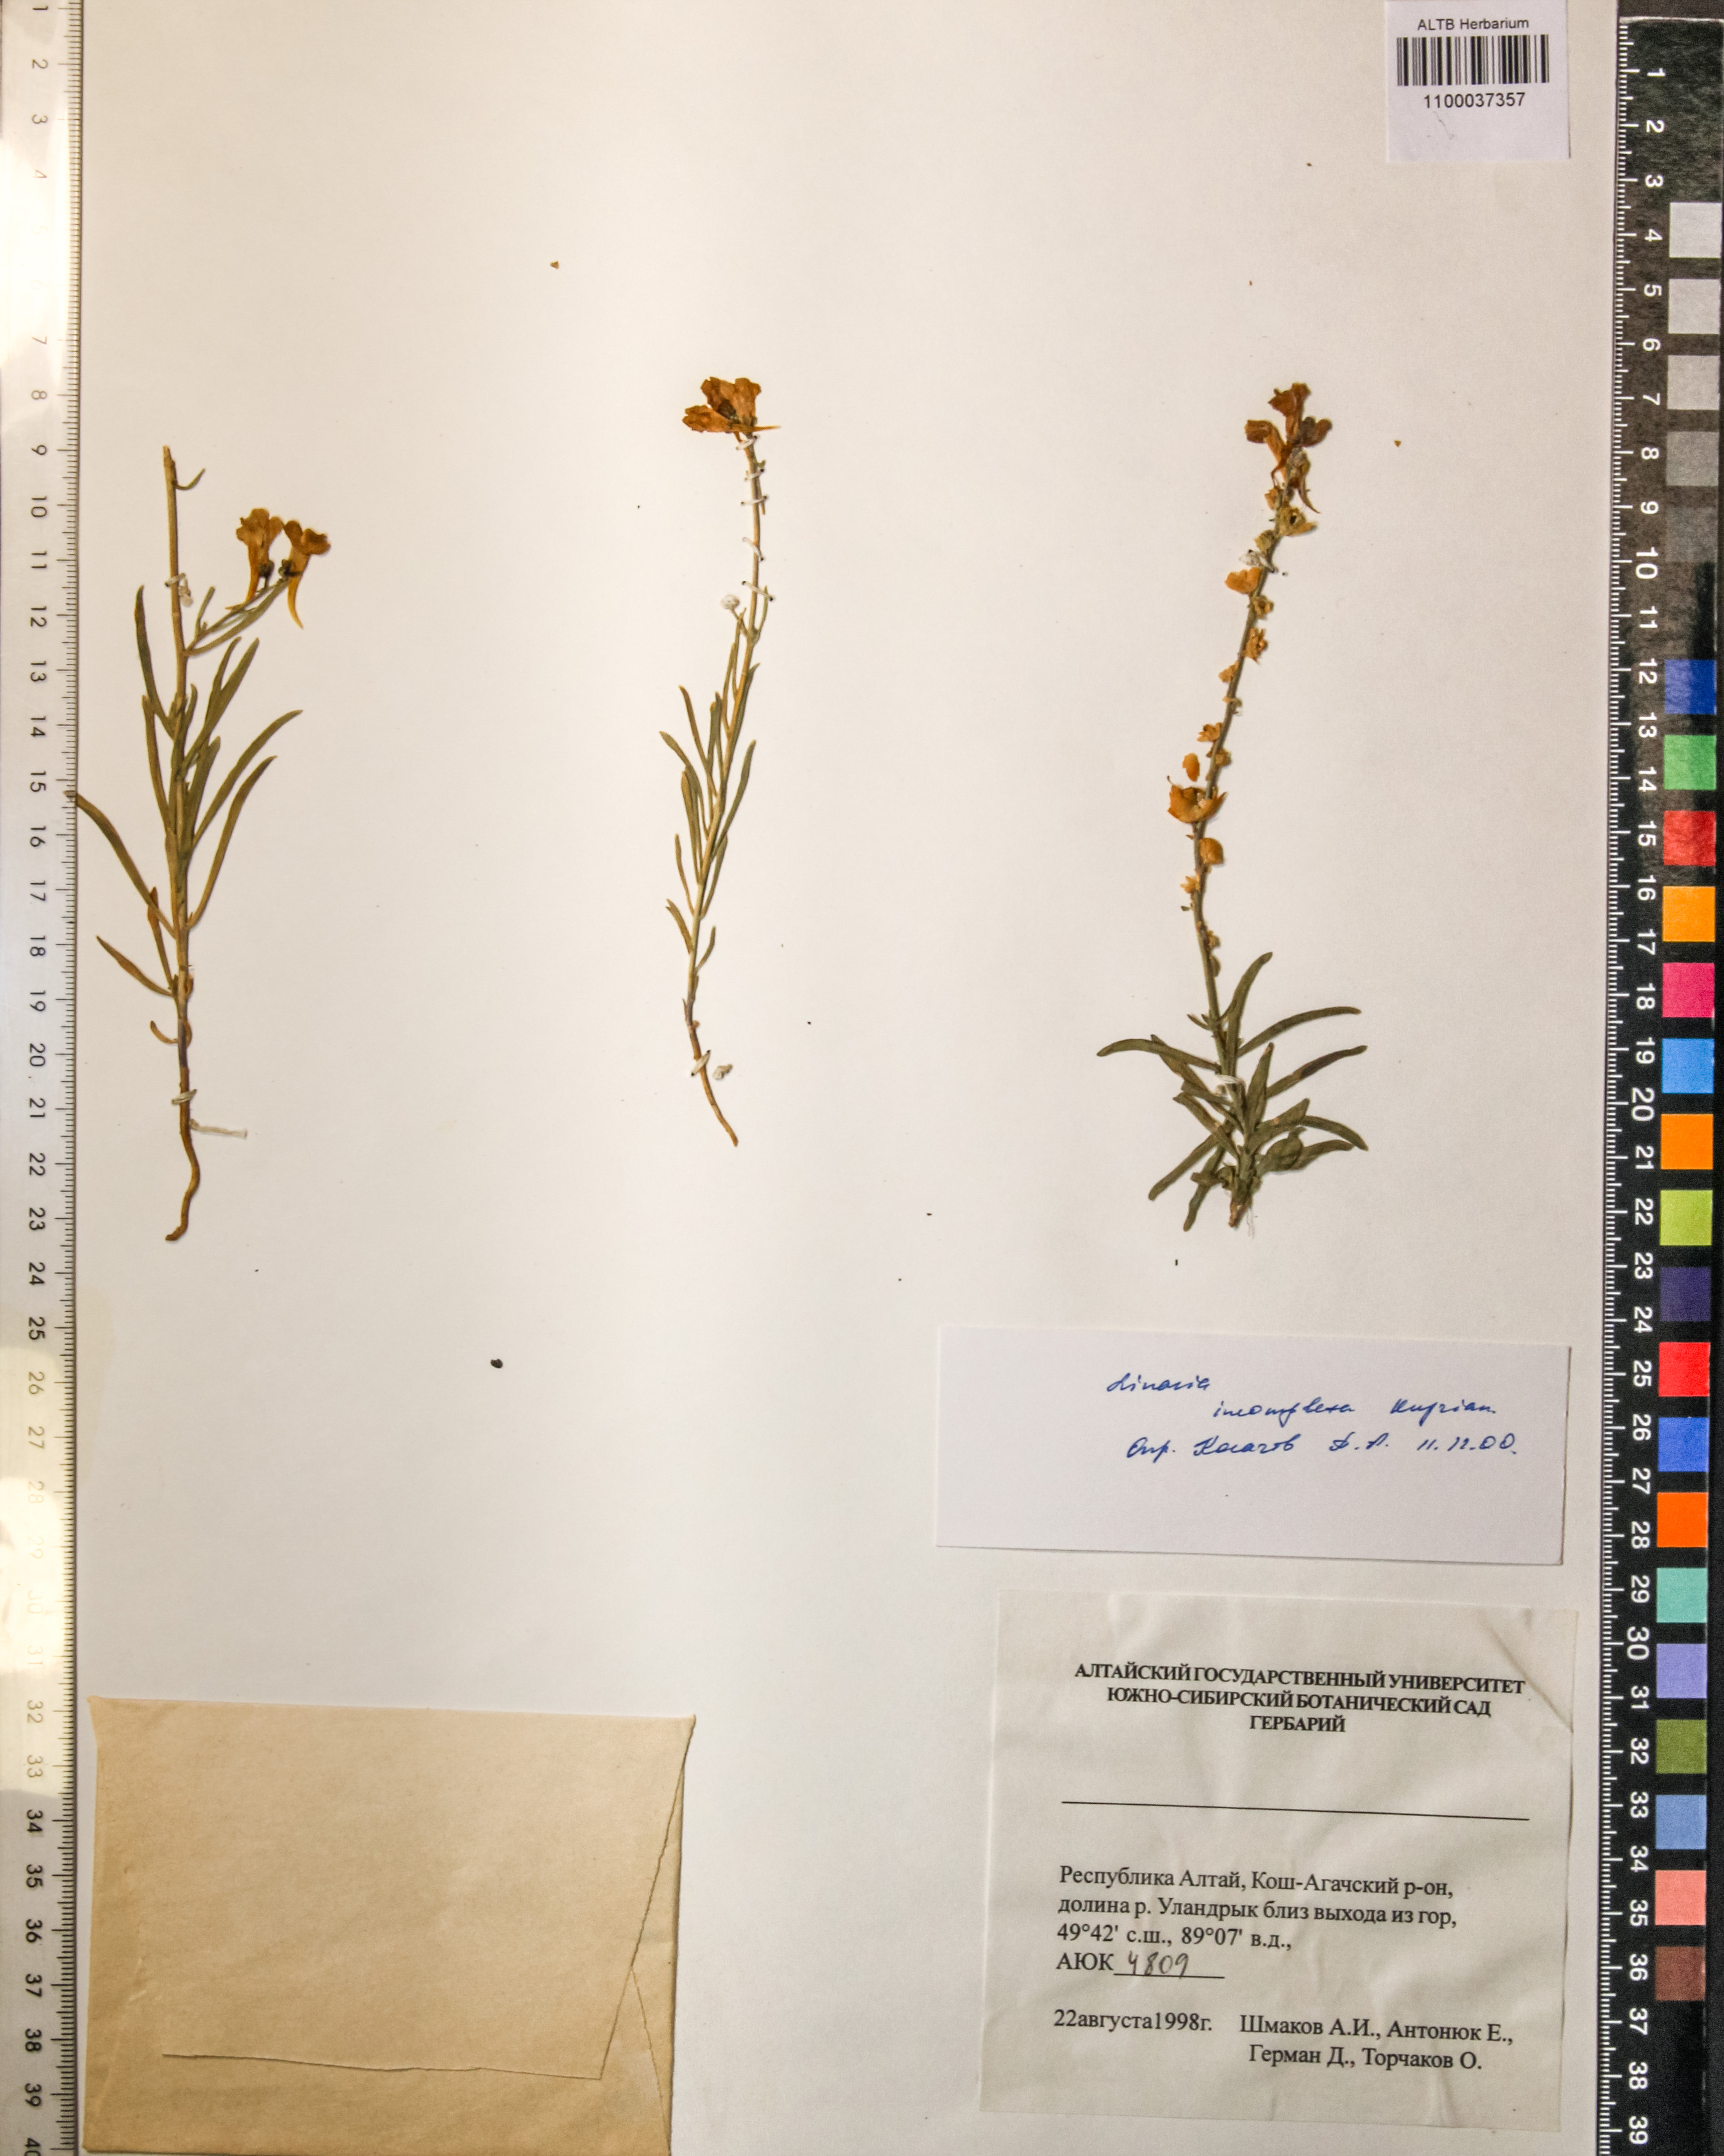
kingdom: Plantae
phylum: Tracheophyta
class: Magnoliopsida
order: Lamiales
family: Plantaginaceae
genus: Linaria
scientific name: Linaria incompleta
